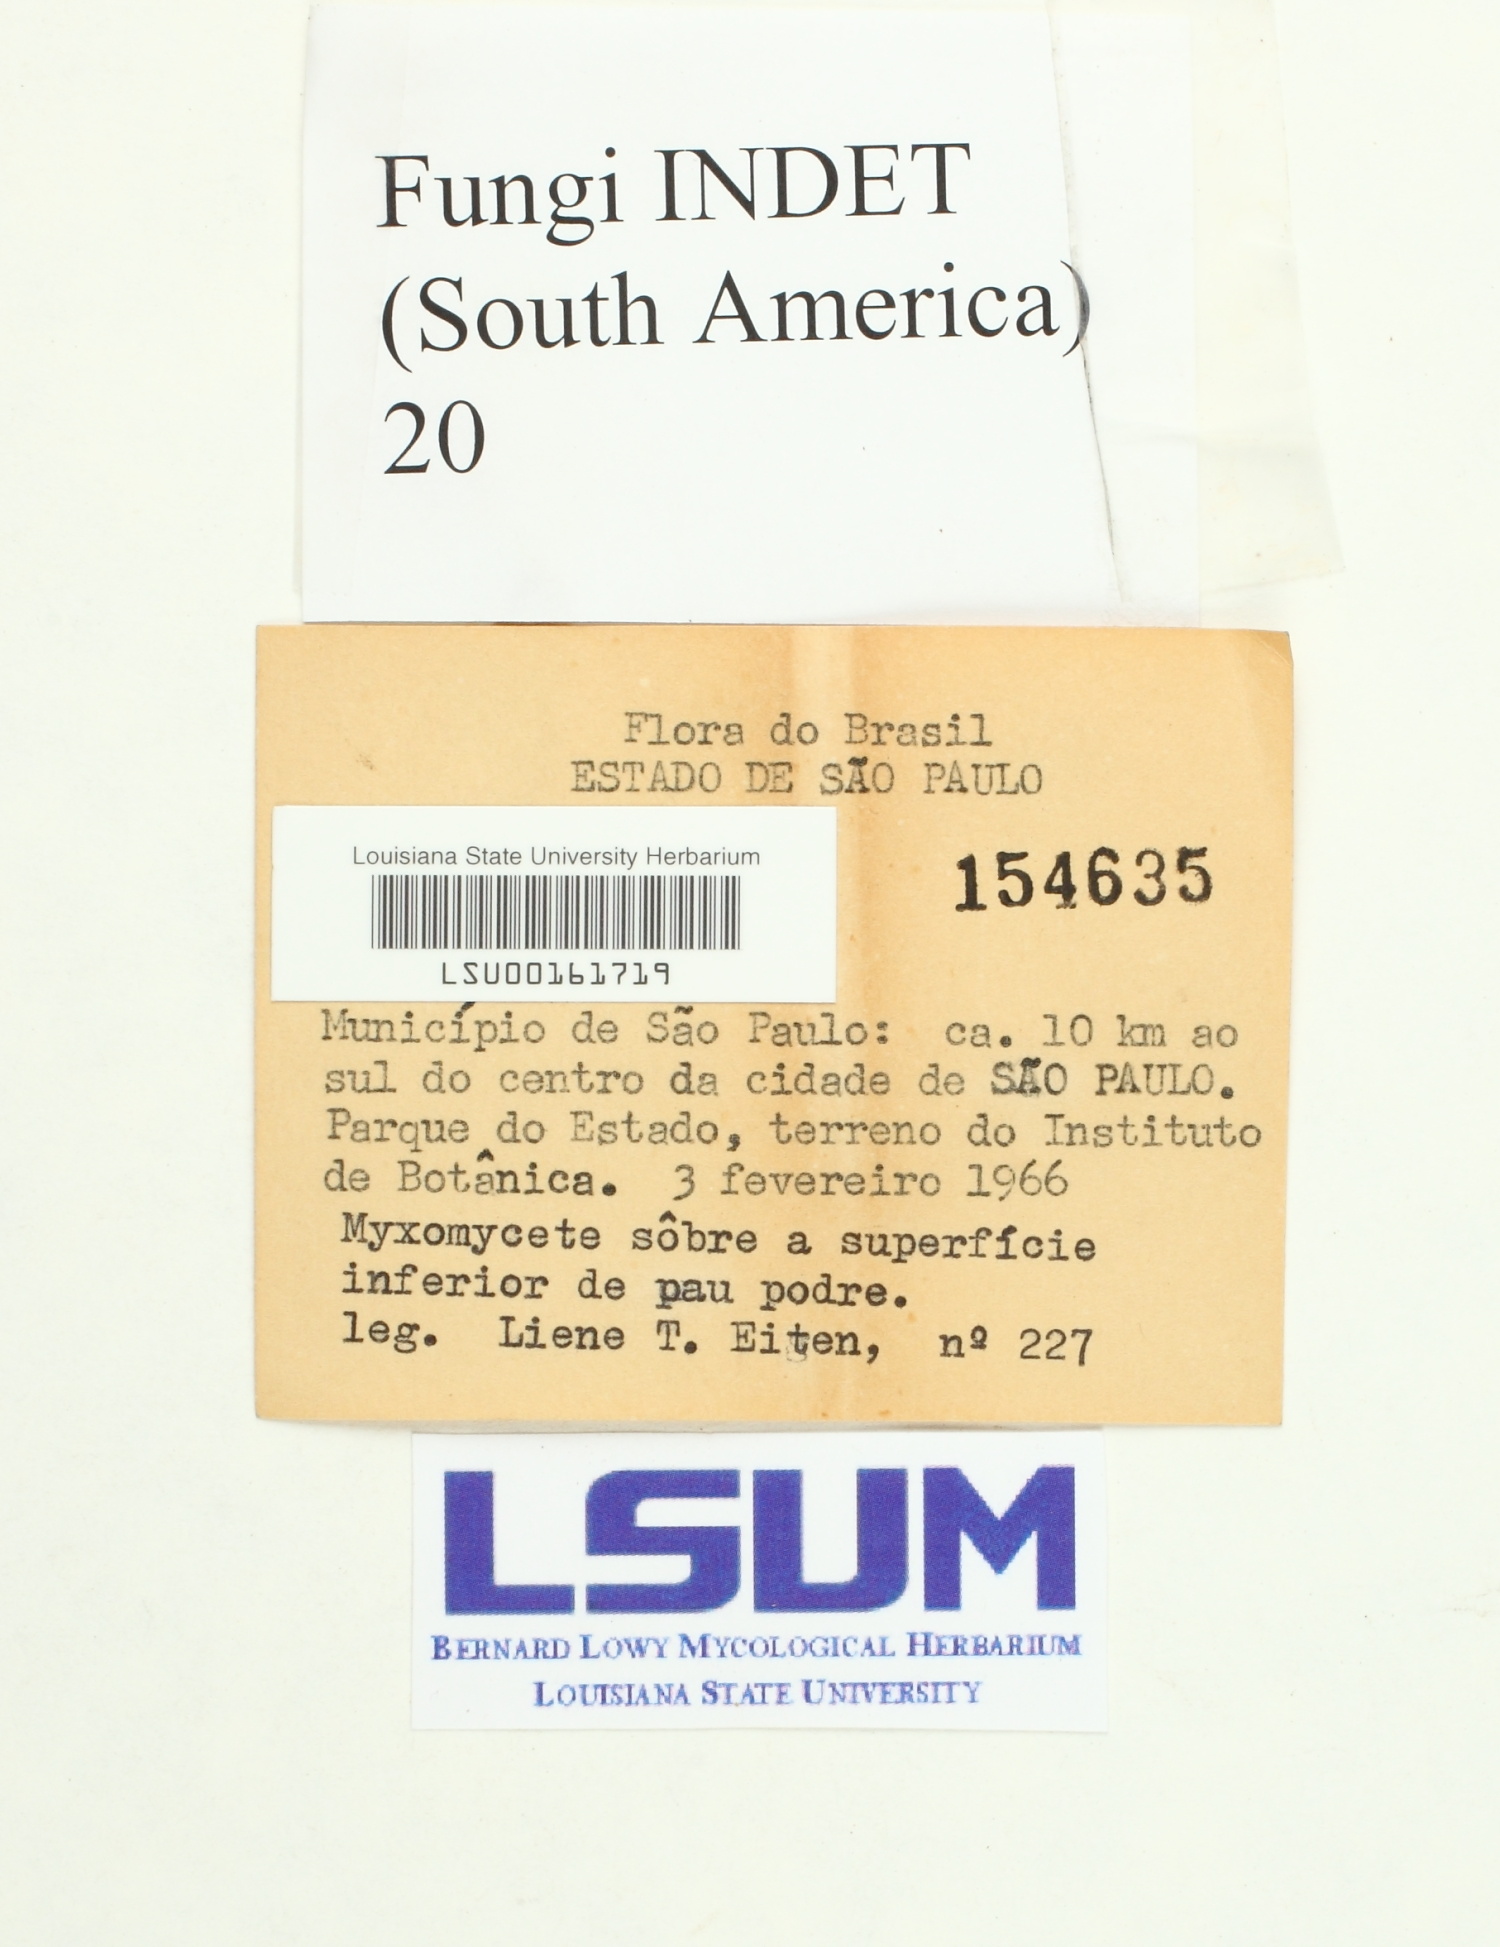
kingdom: Fungi
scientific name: Fungi
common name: Fungi
